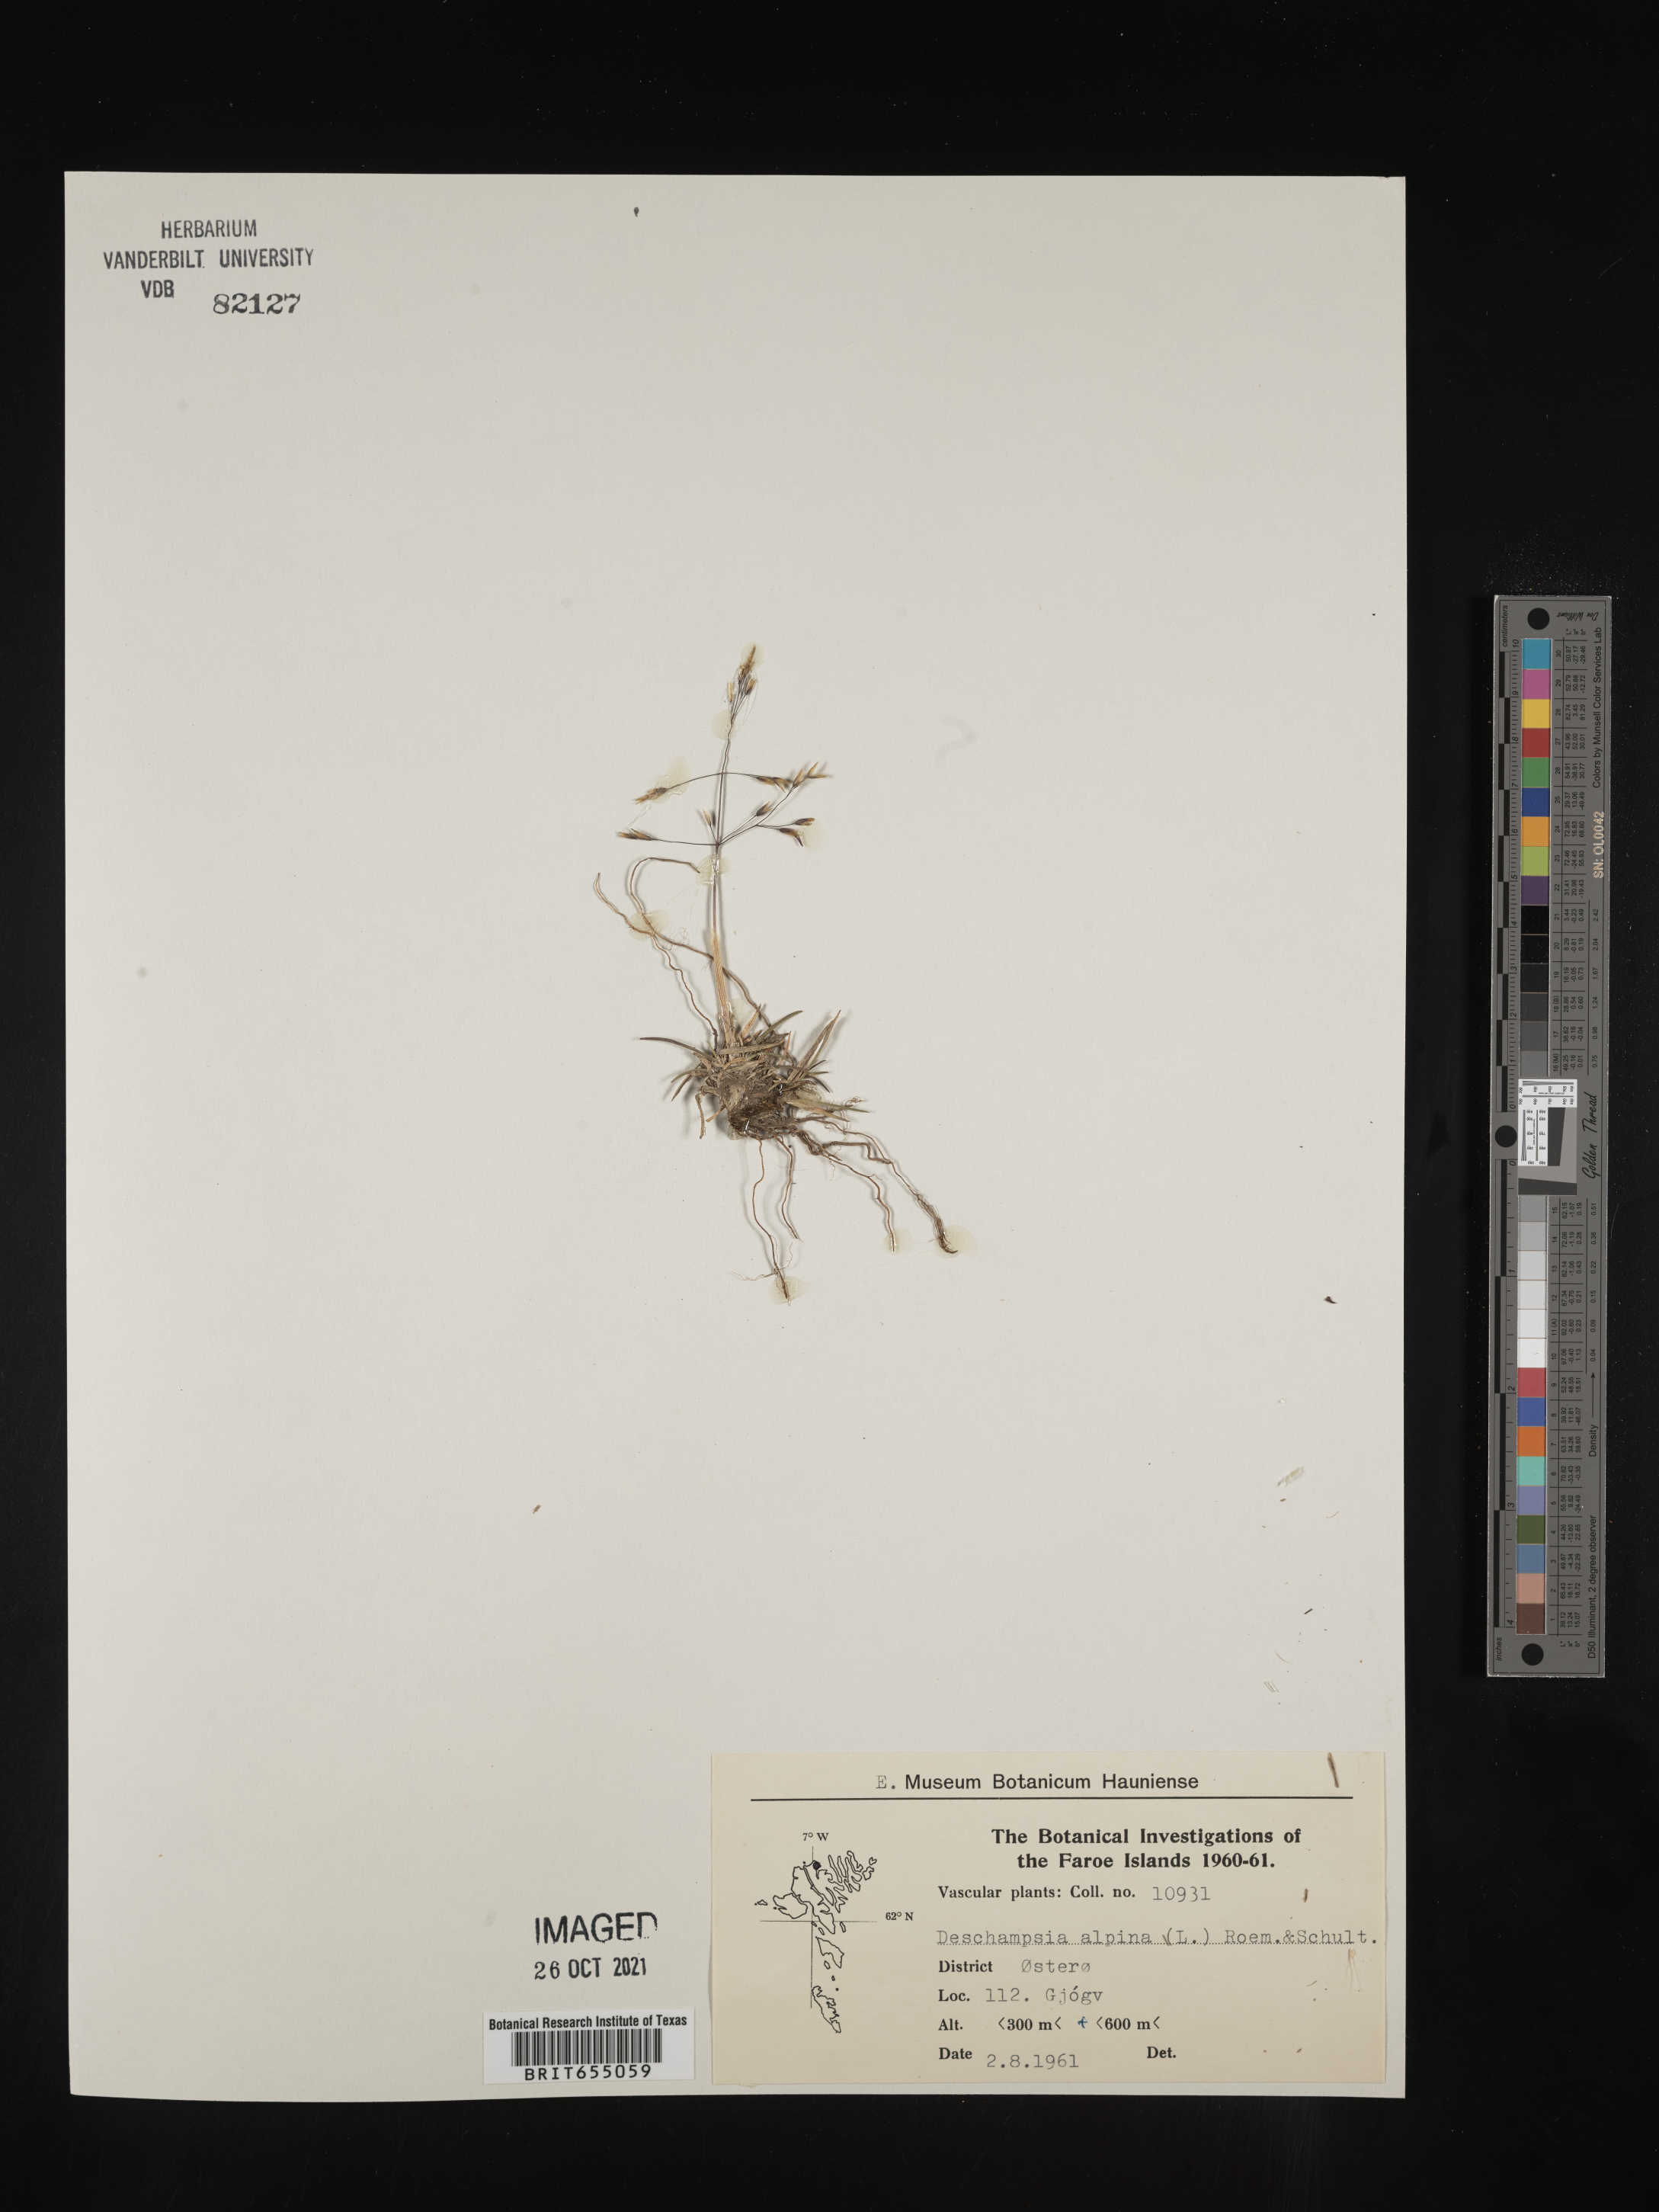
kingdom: Plantae
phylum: Tracheophyta
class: Liliopsida
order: Poales
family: Poaceae
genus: Deschampsia
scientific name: Deschampsia
